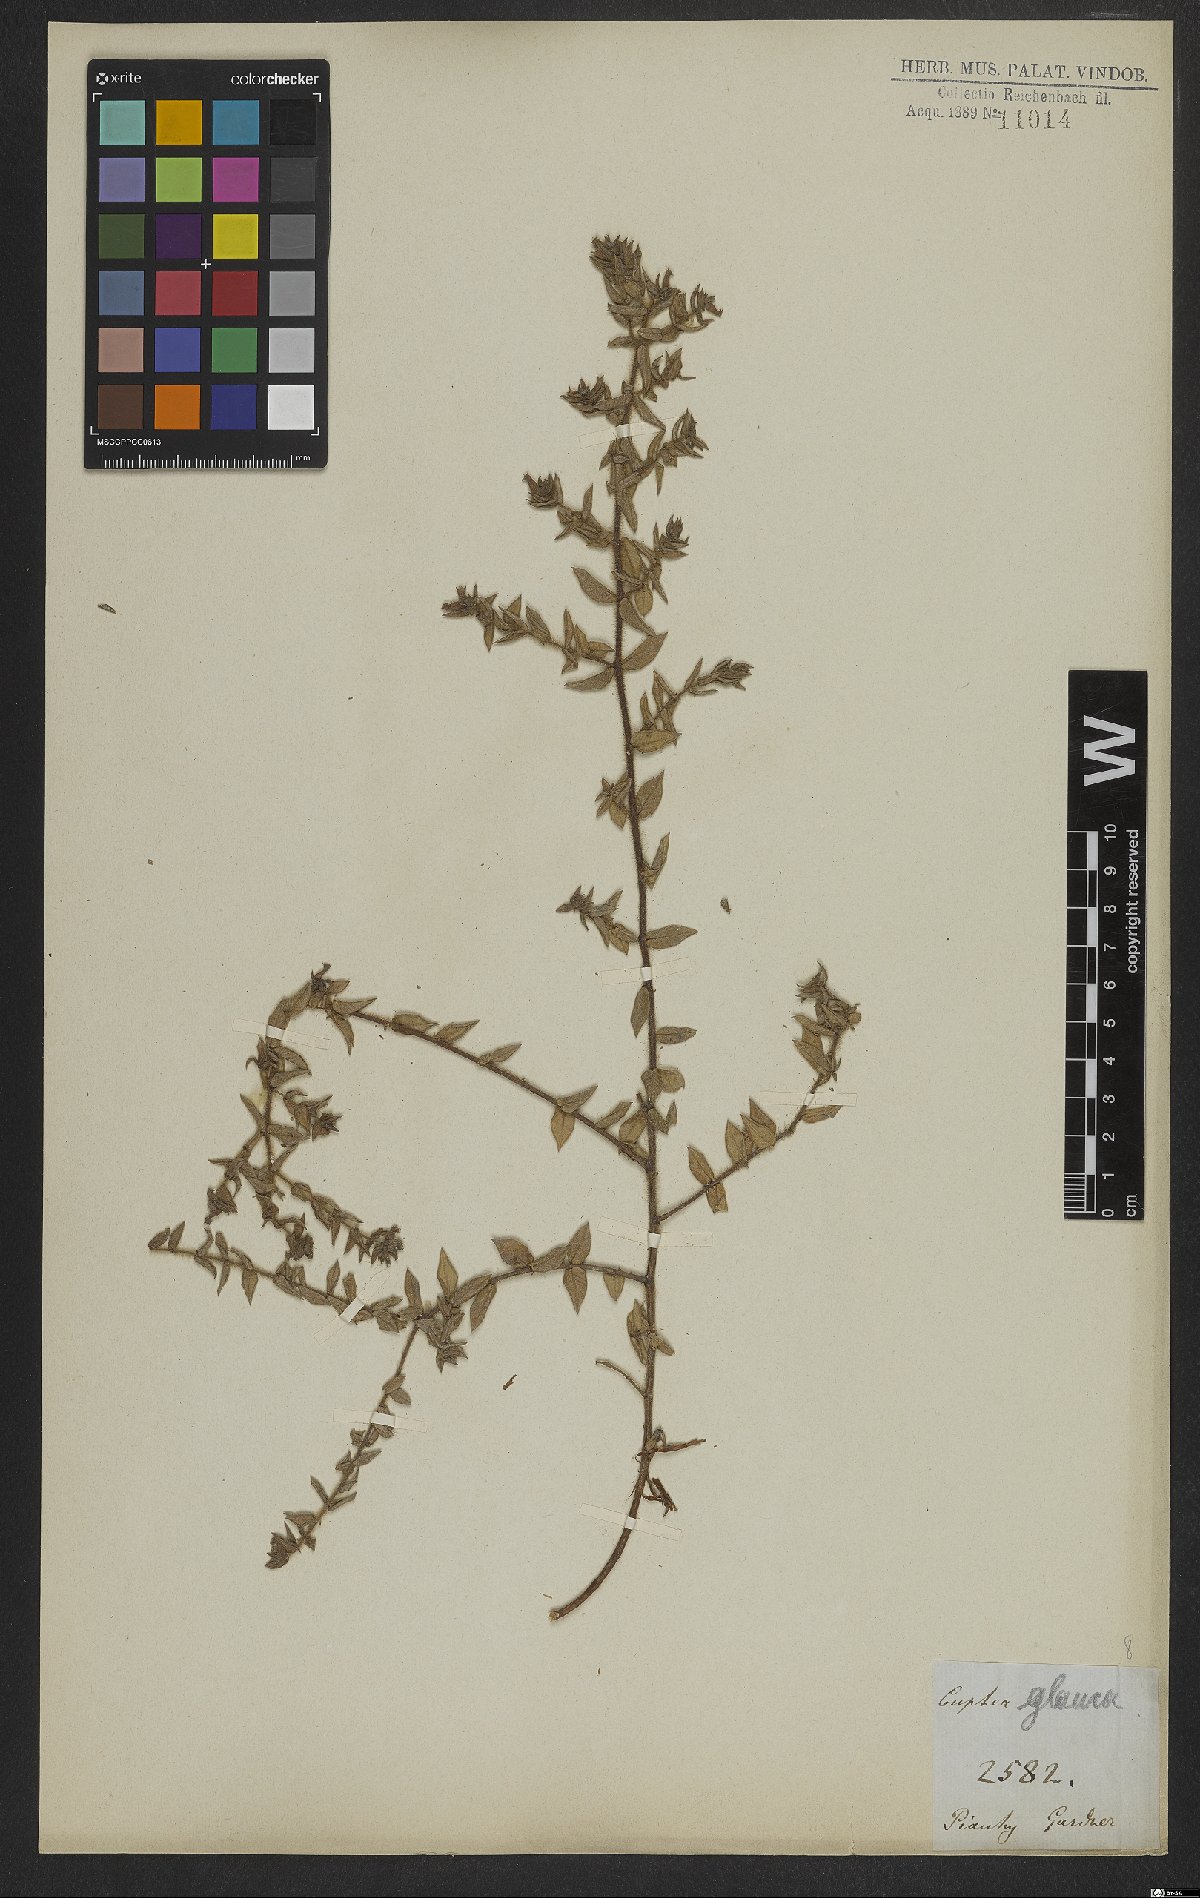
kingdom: Plantae
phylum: Tracheophyta
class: Magnoliopsida
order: Myrtales
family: Lythraceae
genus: Cuphea
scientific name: Cuphea glauca
